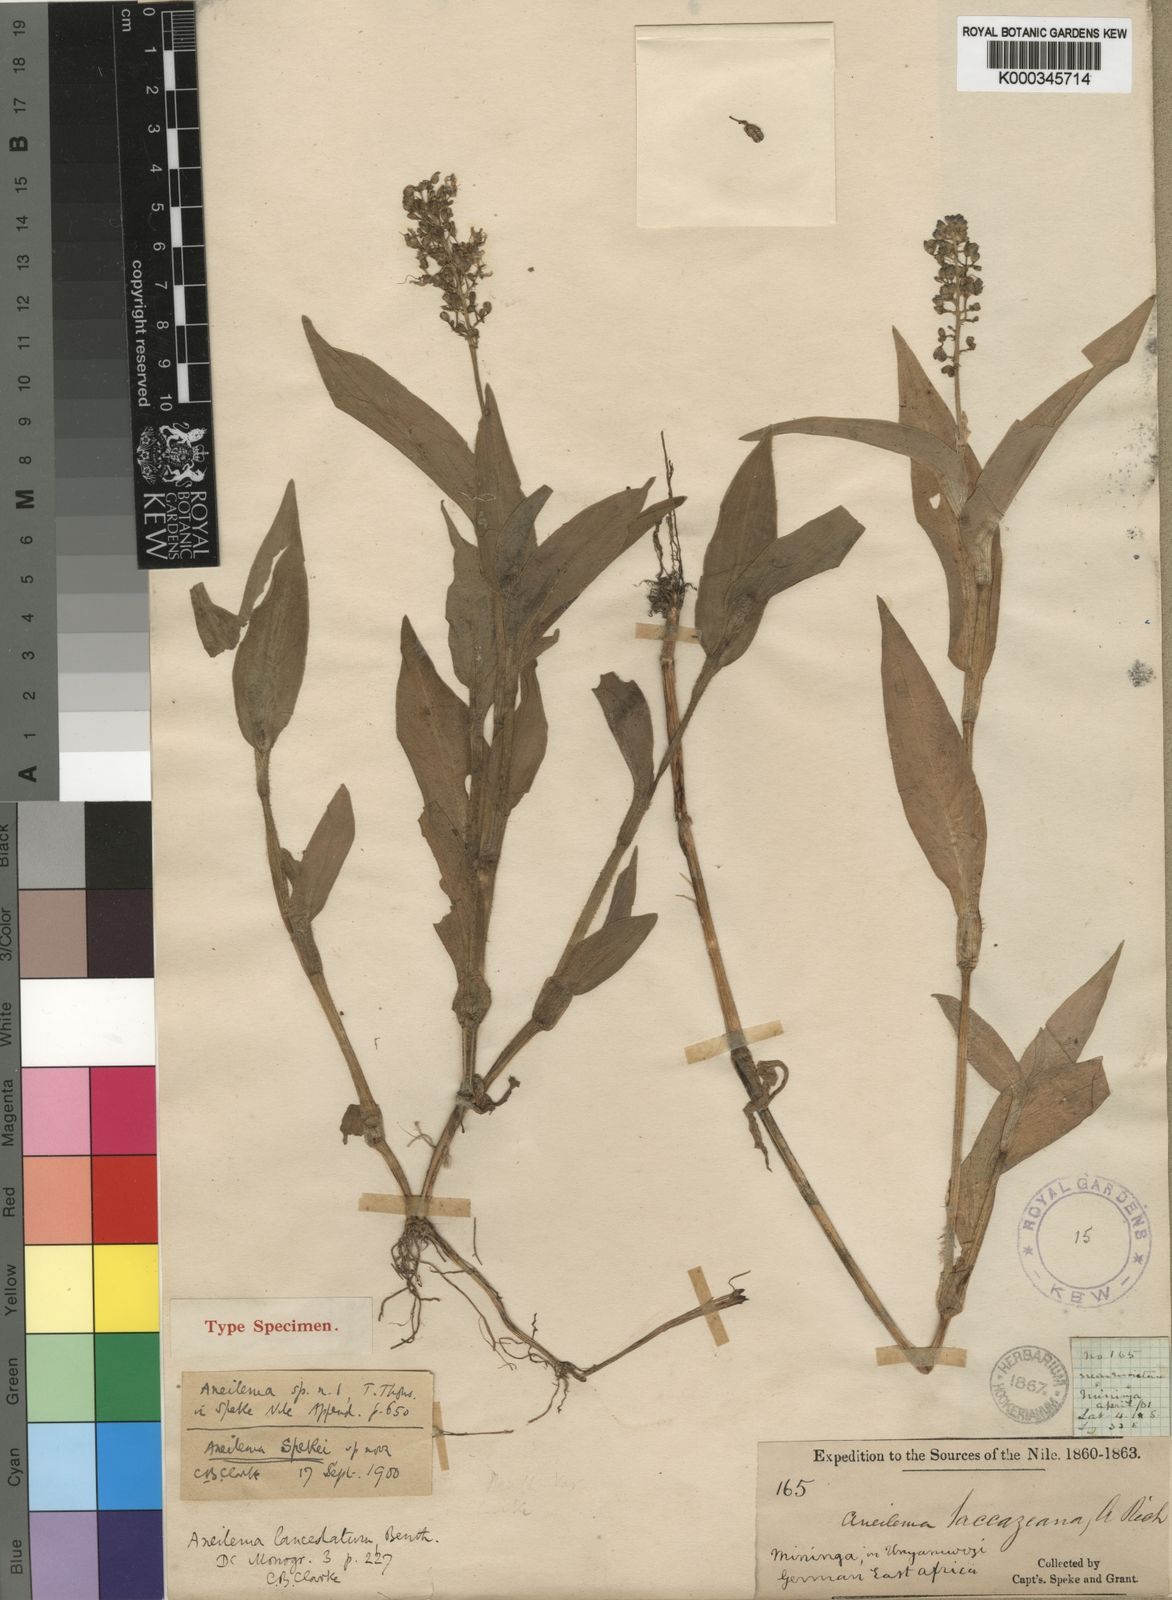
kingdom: Plantae
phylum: Tracheophyta
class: Liliopsida
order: Commelinales
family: Commelinaceae
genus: Aneilema
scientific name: Aneilema spekei
